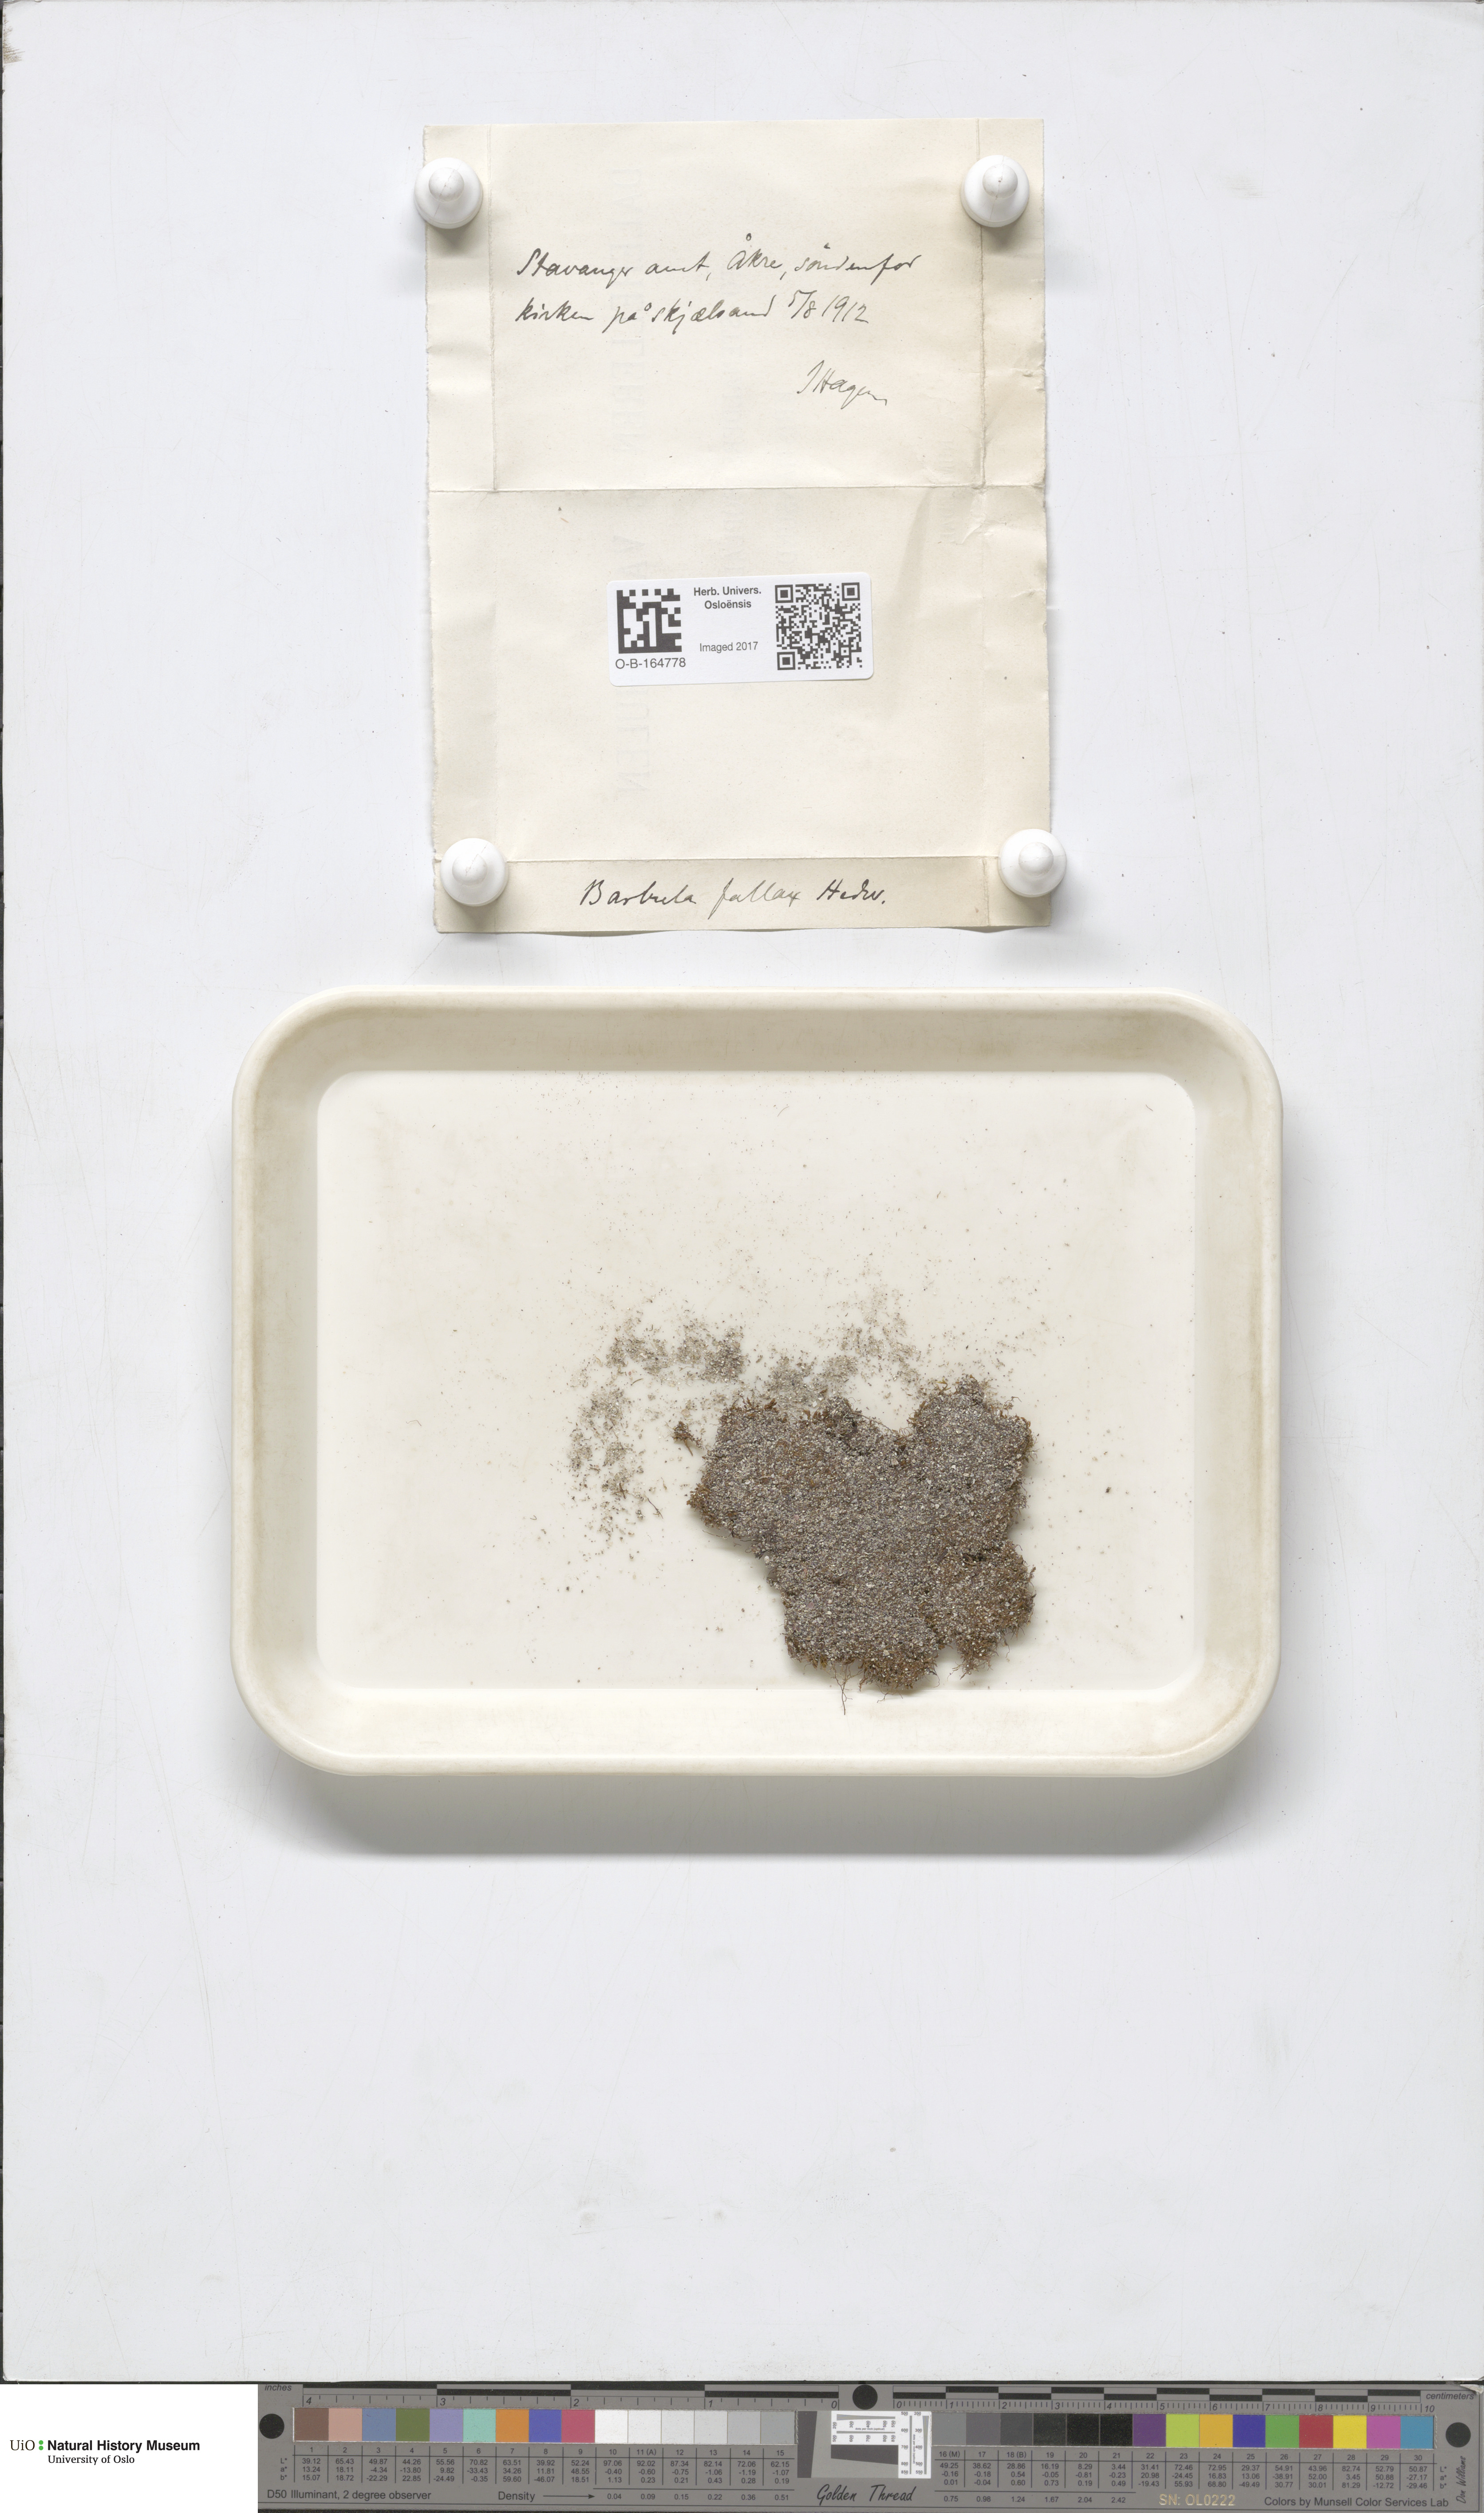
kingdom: Plantae
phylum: Bryophyta
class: Bryopsida
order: Pottiales
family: Pottiaceae
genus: Geheebia
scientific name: Geheebia fallax
